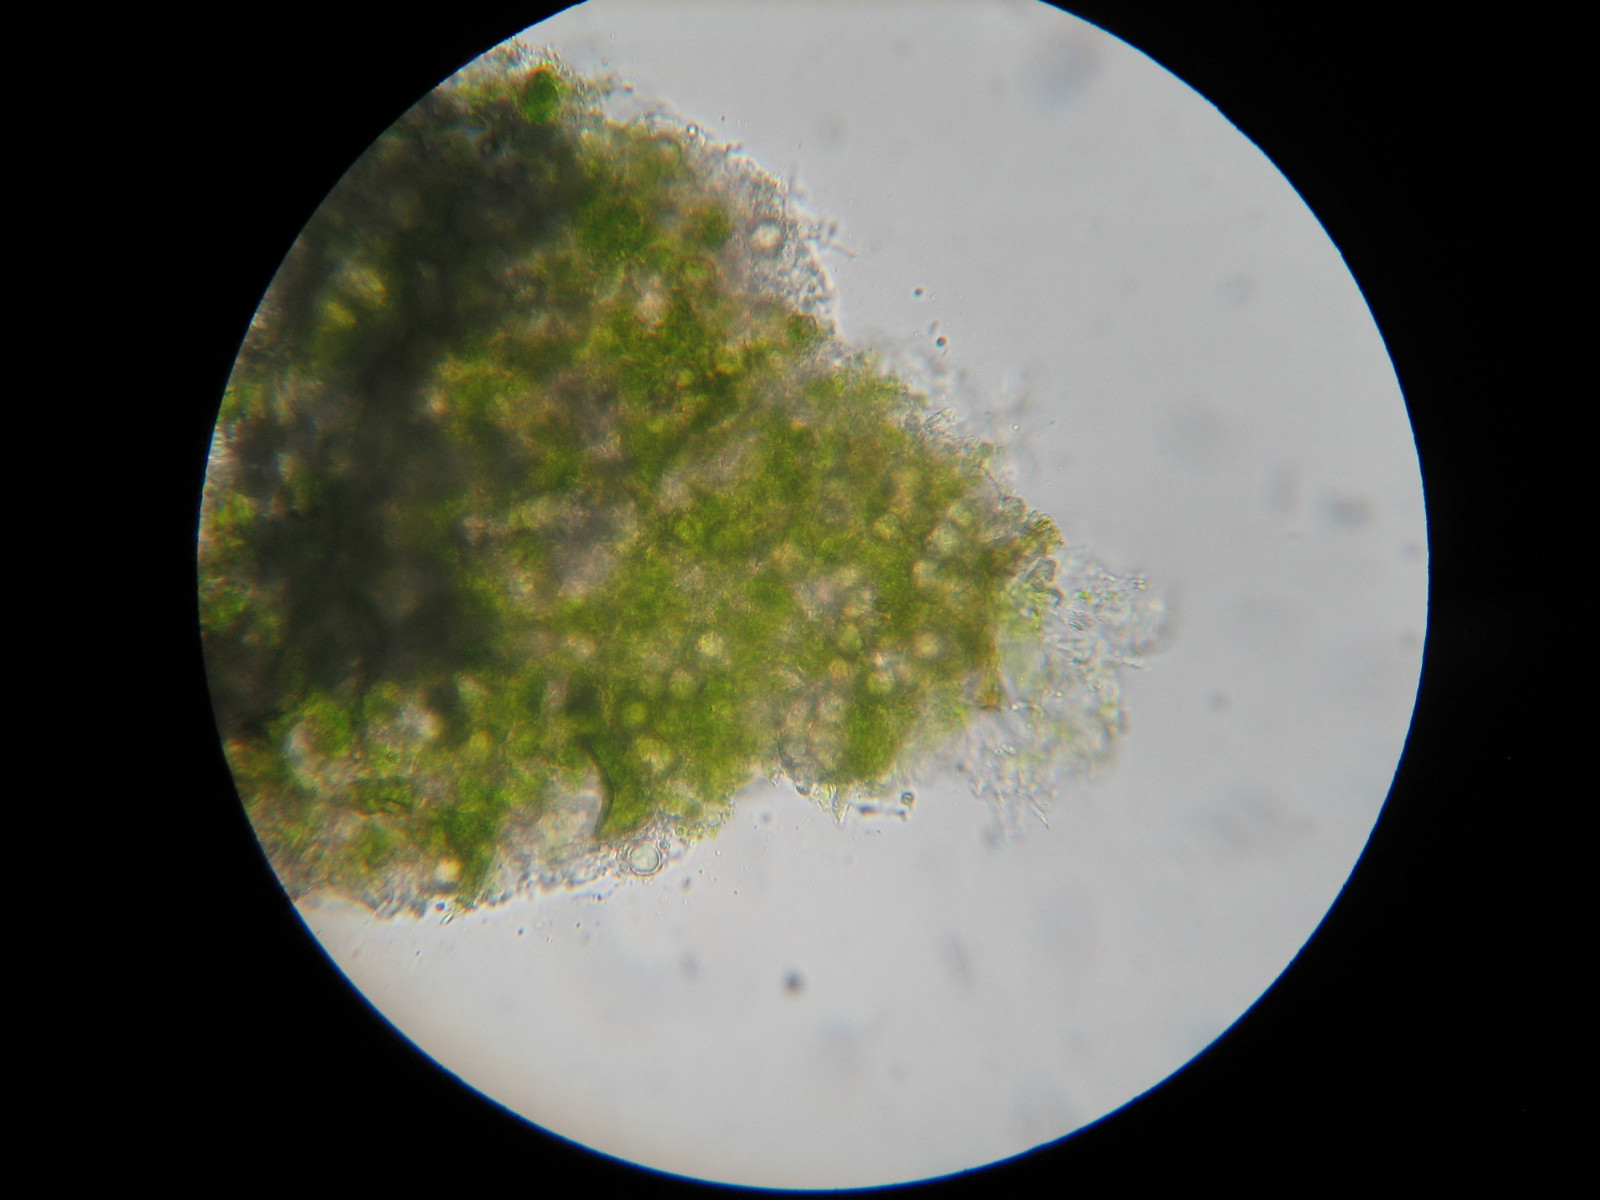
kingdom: Fungi
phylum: Basidiomycota
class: Exobasidiomycetes
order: Entylomatales
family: Entylomataceae
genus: Entyloma
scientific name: Entyloma ficariae
